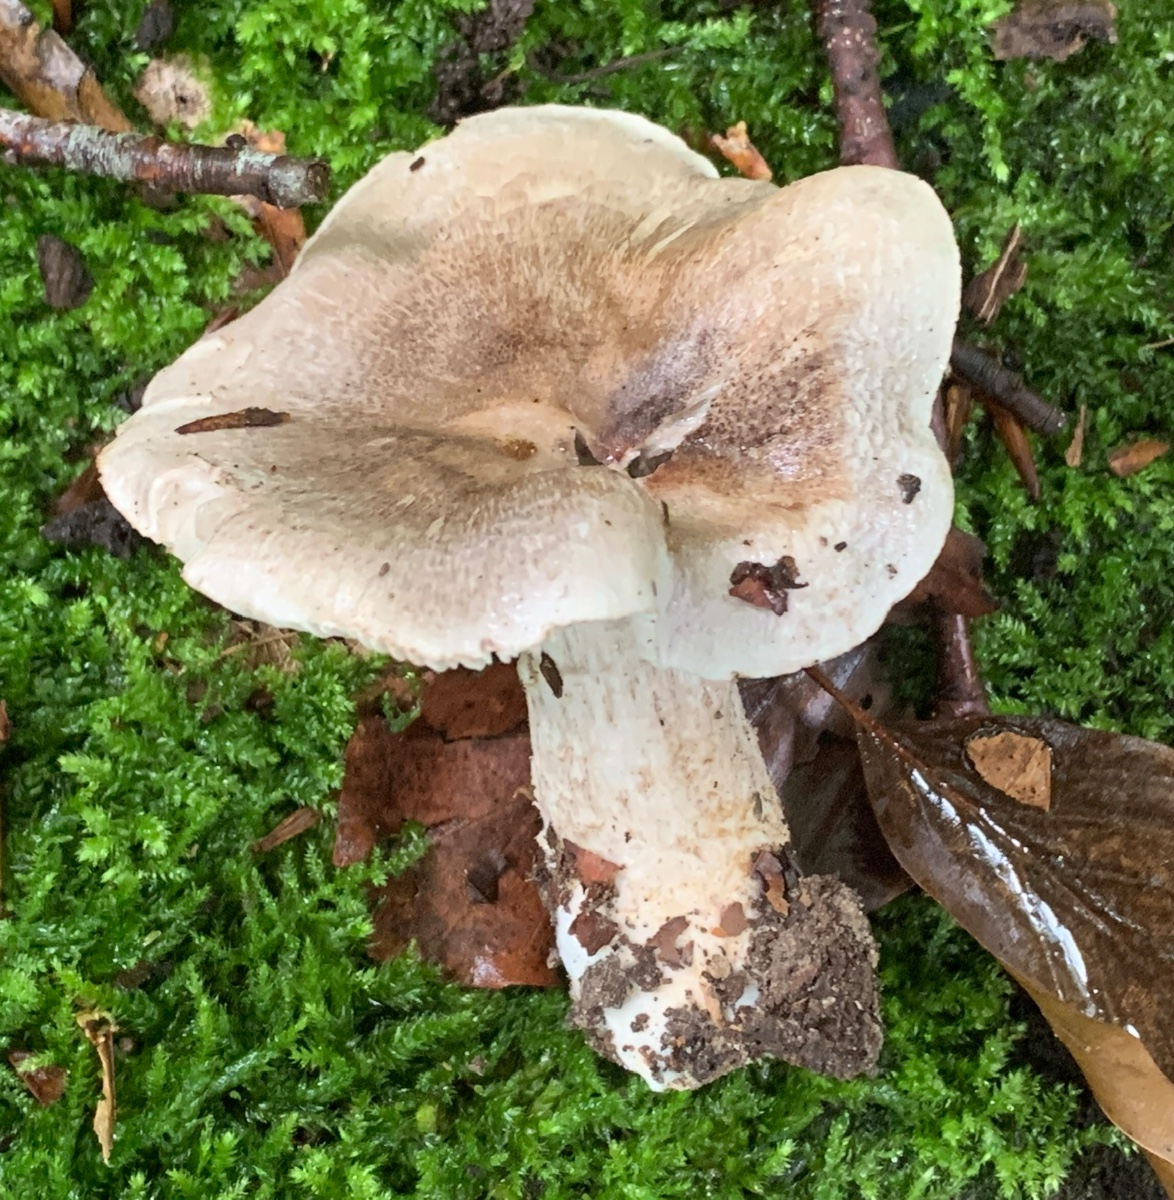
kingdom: Fungi
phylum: Basidiomycota
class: Agaricomycetes
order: Agaricales
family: Tricholomataceae
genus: Tricholoma
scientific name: Tricholoma sciodes
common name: stribet ridderhat
